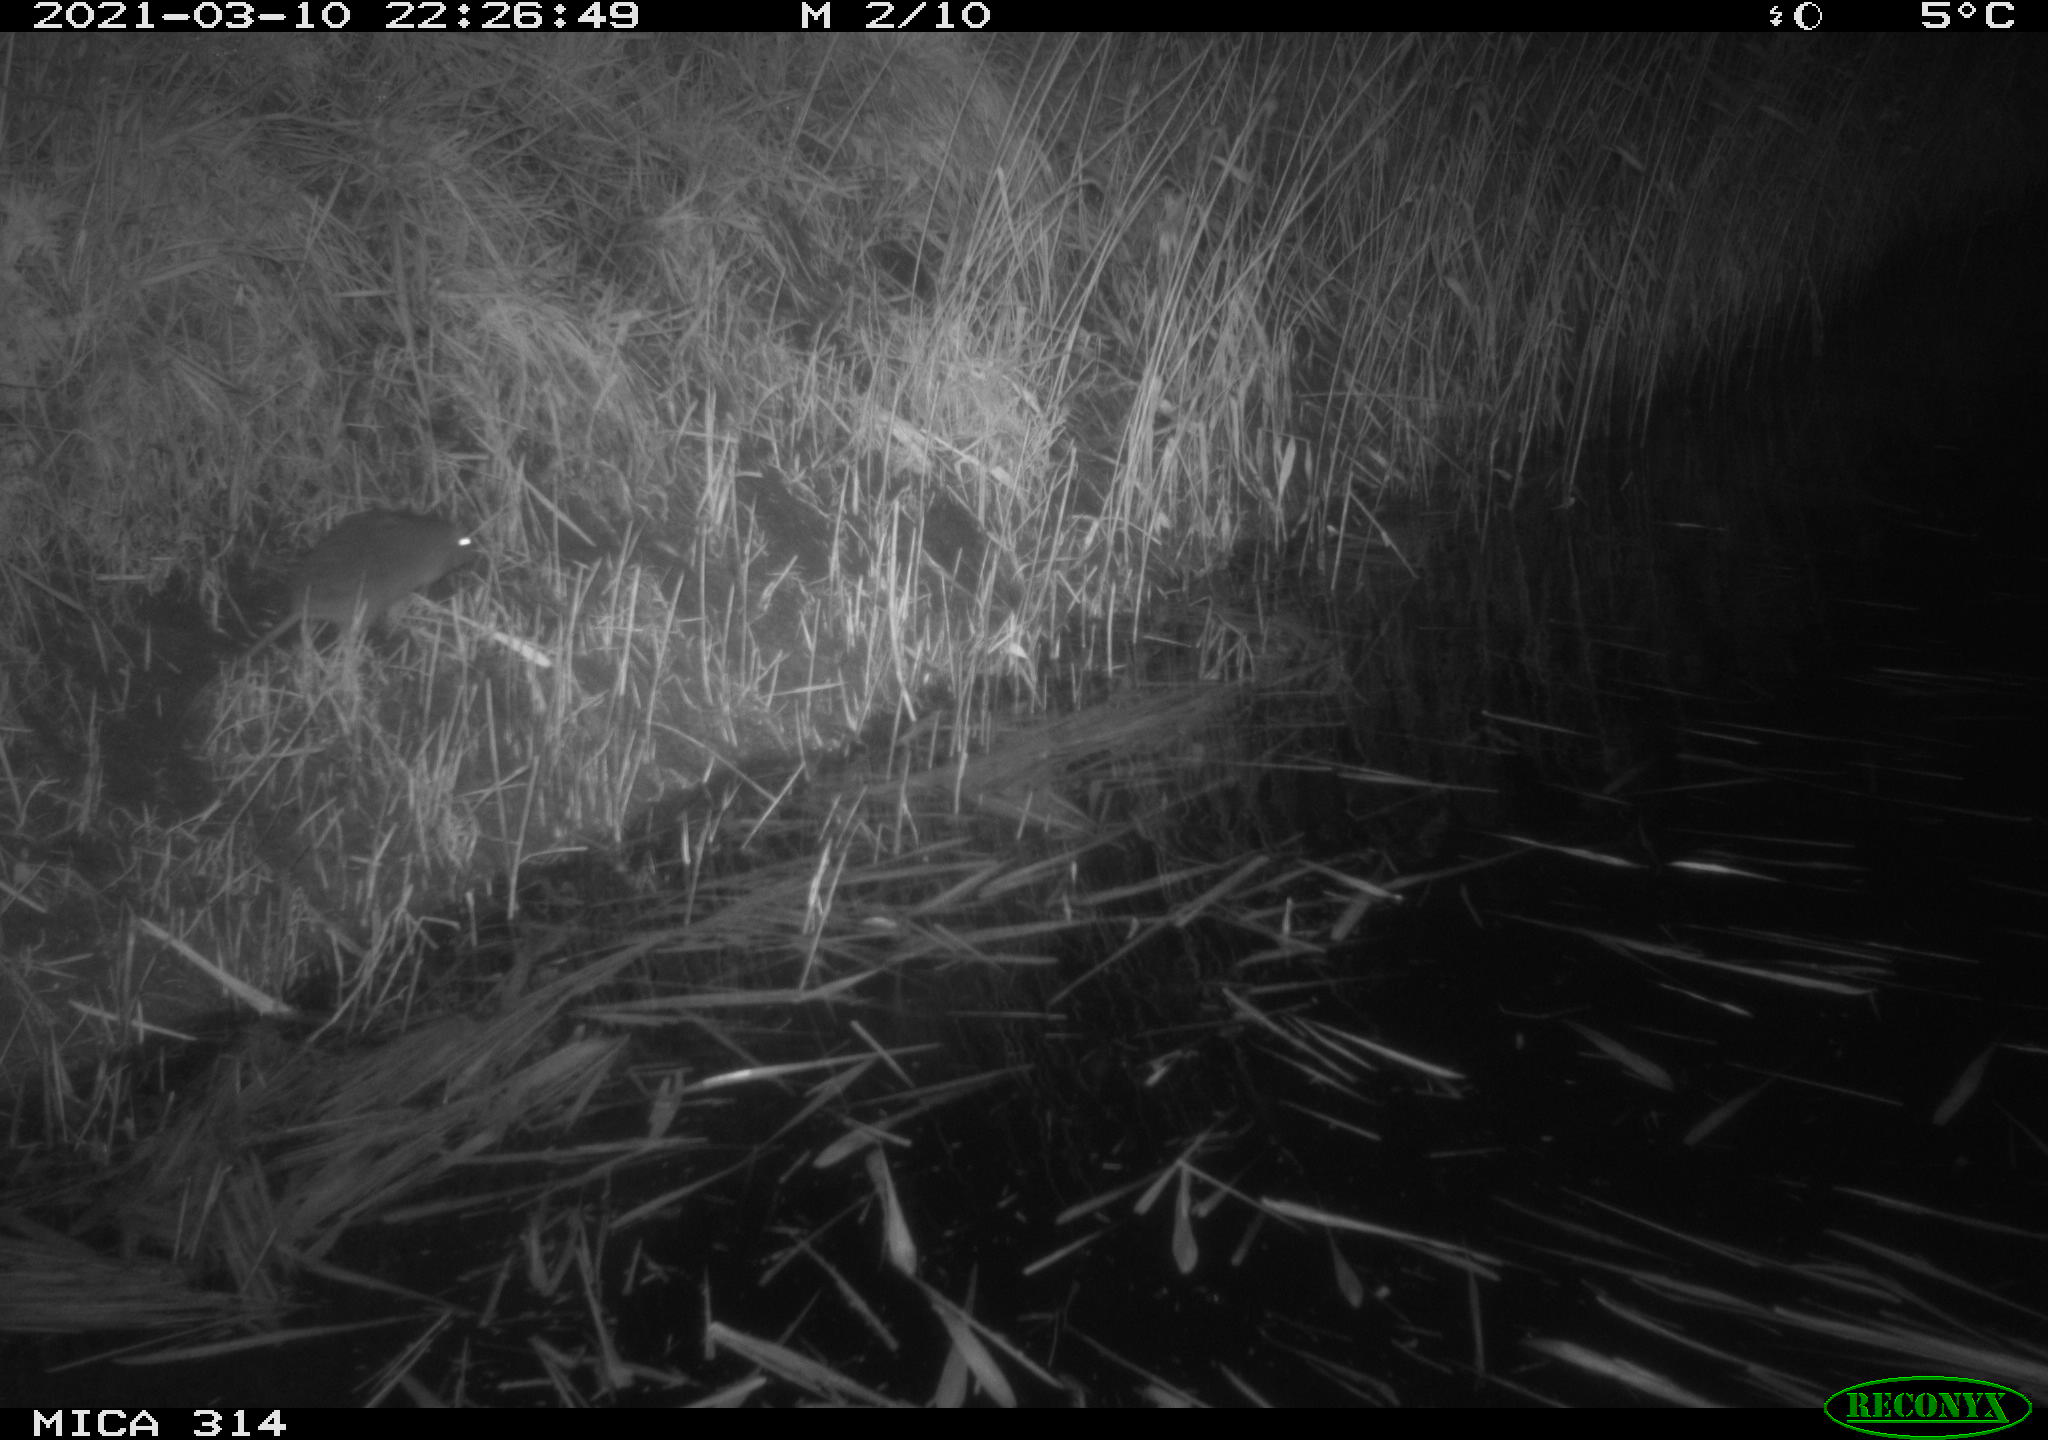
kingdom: Animalia
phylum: Chordata
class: Mammalia
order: Rodentia
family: Muridae
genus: Rattus
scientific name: Rattus norvegicus
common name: Brown rat
